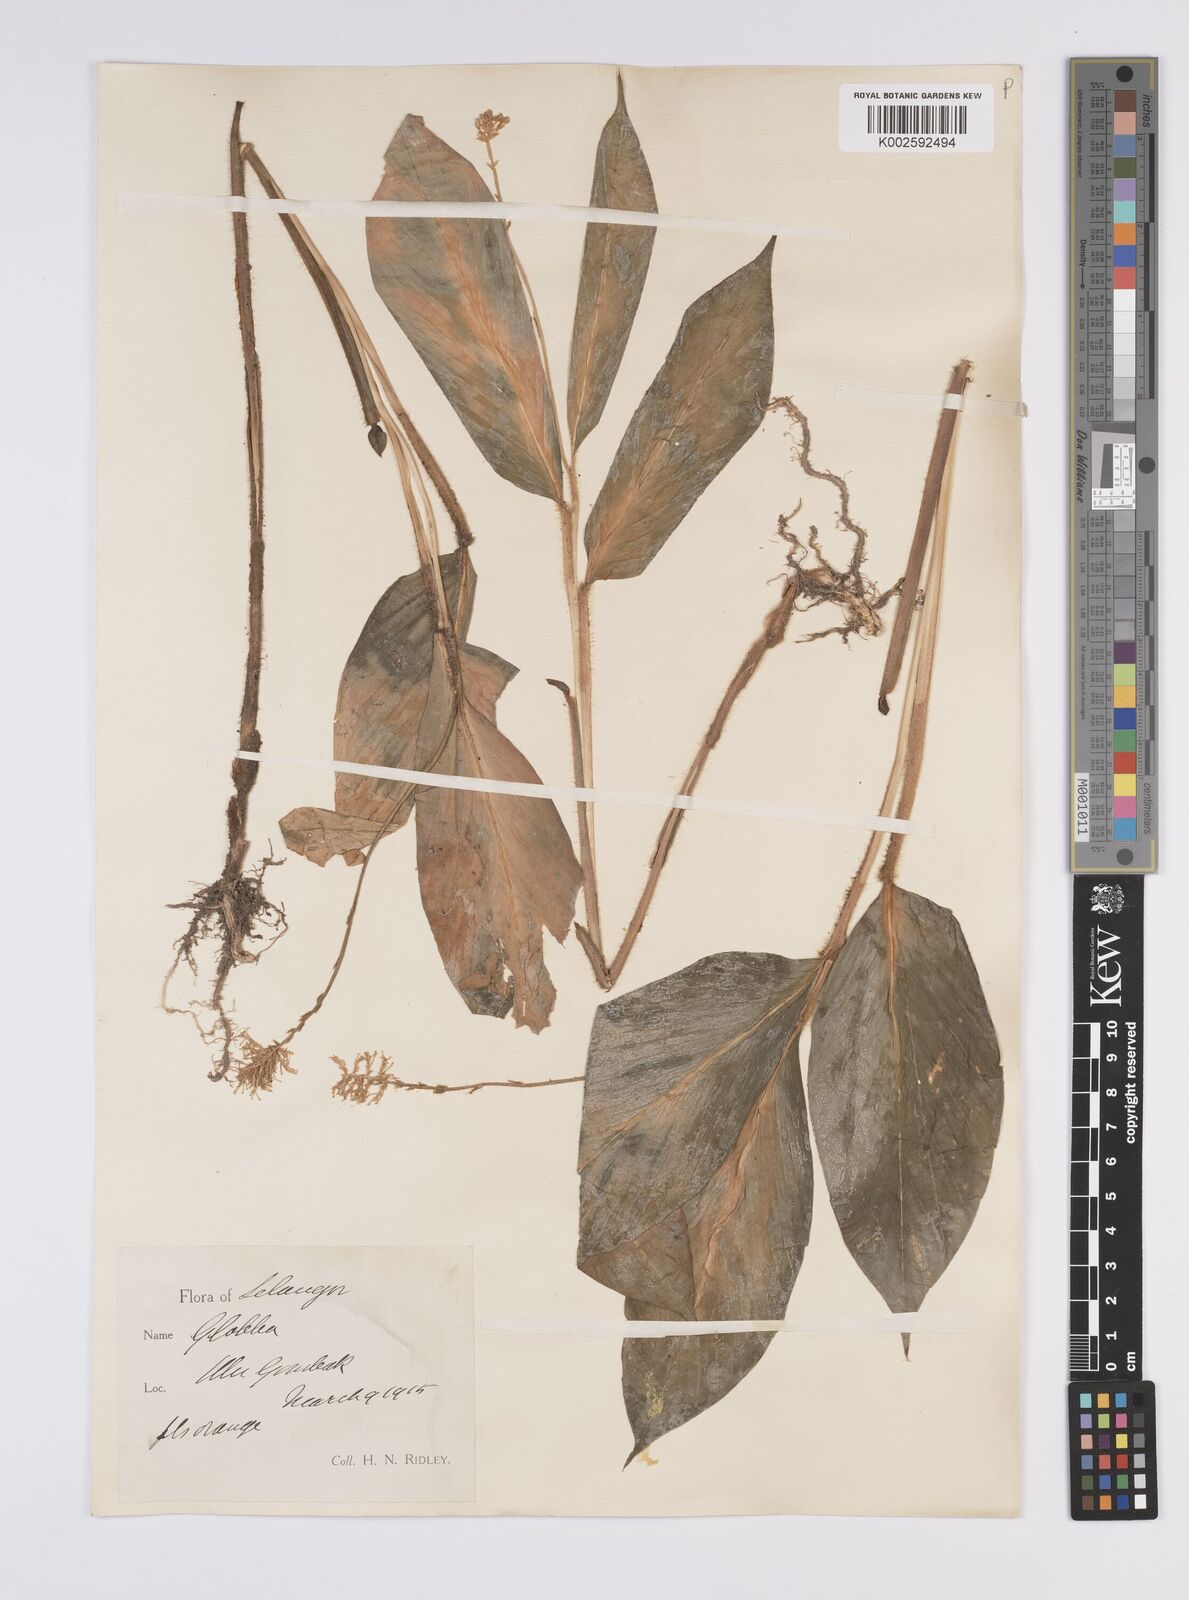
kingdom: Plantae
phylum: Tracheophyta
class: Liliopsida
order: Zingiberales
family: Zingiberaceae
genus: Globba
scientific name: Globba aurantiaca
